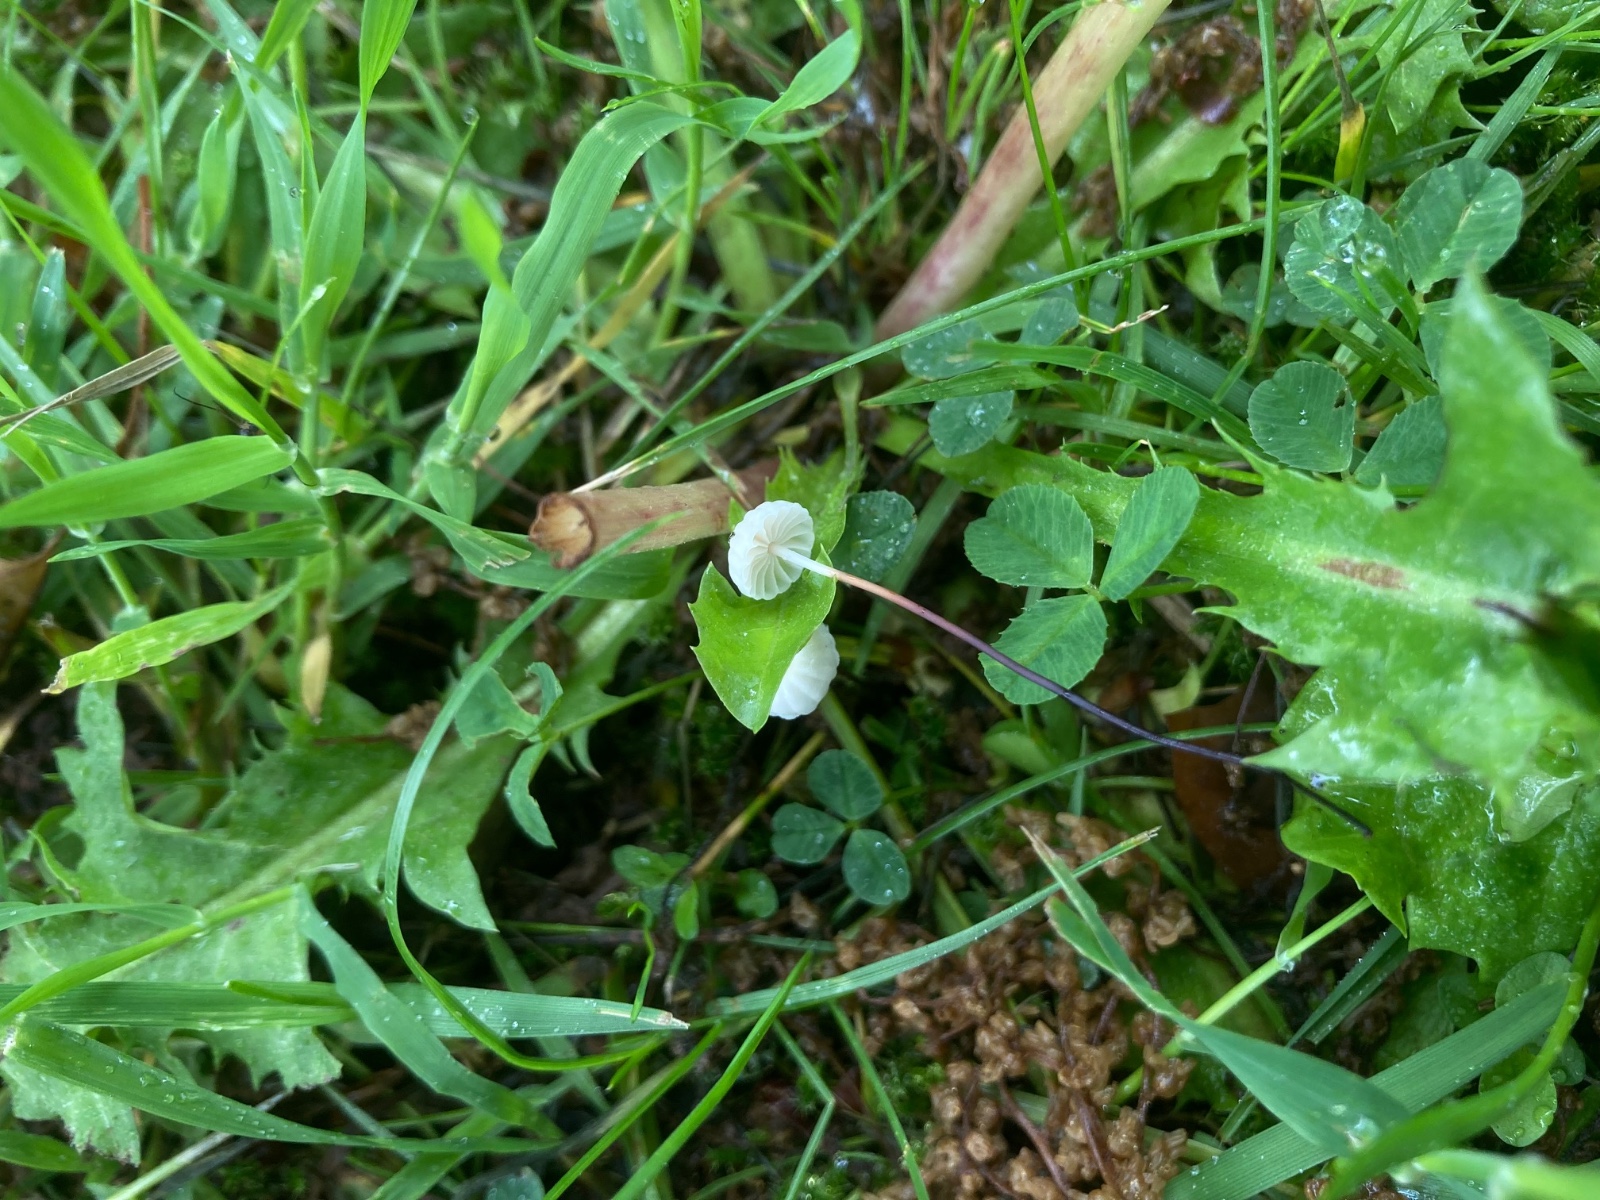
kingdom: Fungi
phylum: Basidiomycota
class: Agaricomycetes
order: Agaricales
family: Marasmiaceae
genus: Marasmius
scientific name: Marasmius rotula
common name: hjul-bruskhat
